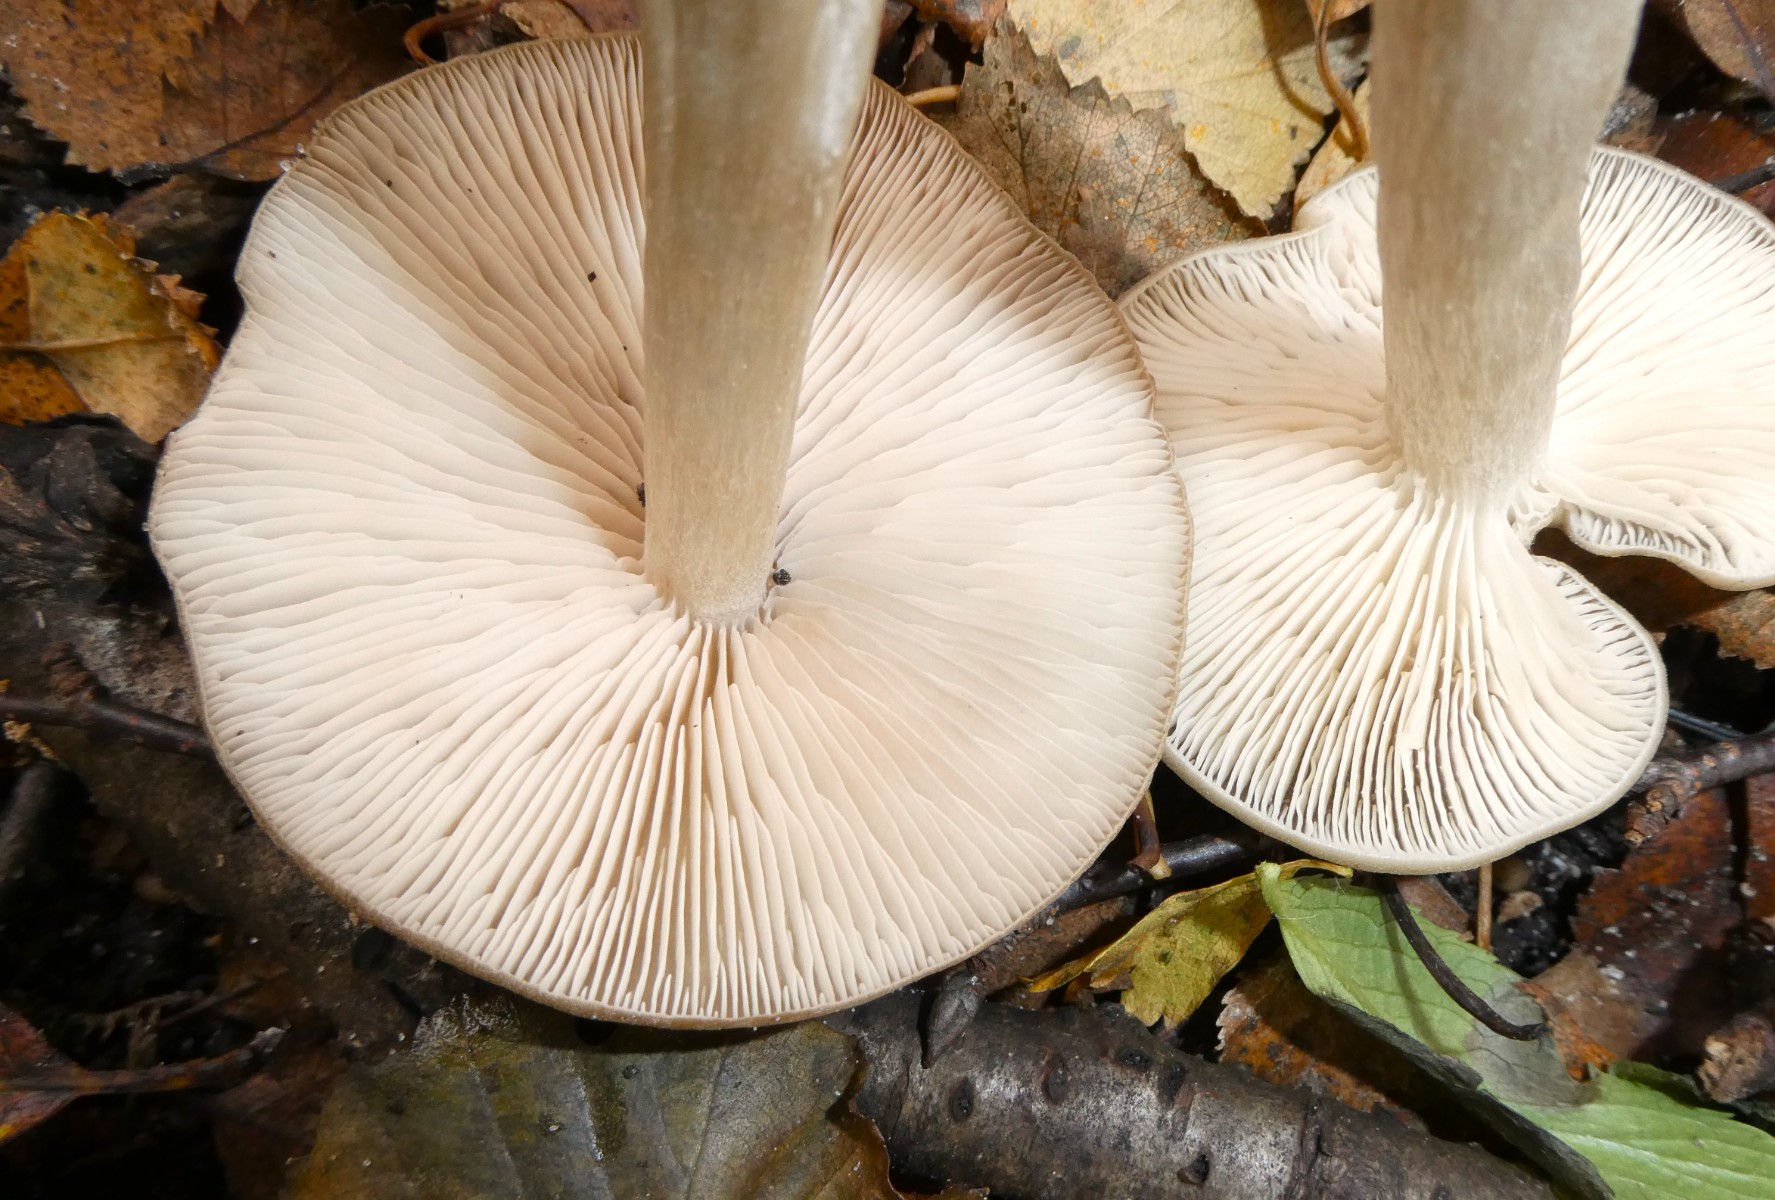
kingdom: Fungi
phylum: Basidiomycota
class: Agaricomycetes
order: Agaricales
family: Entolomataceae
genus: Entoloma
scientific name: Entoloma
